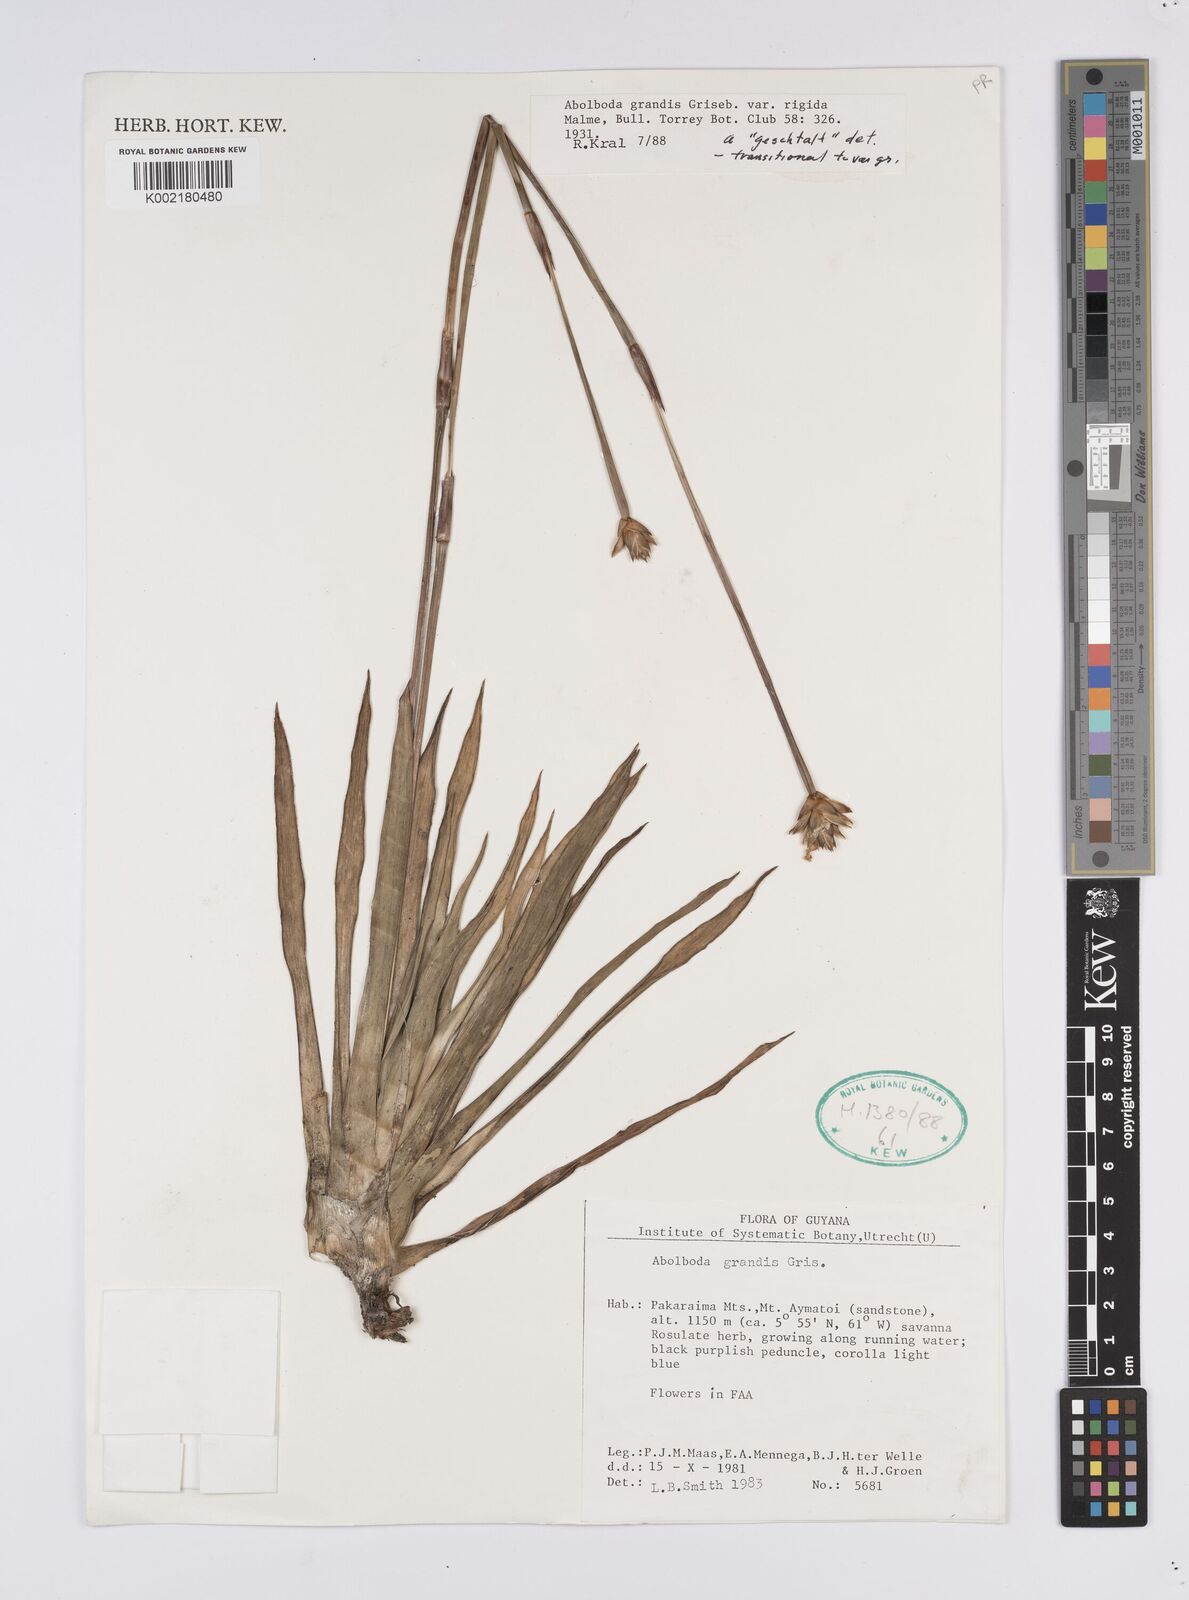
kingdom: Plantae
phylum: Tracheophyta
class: Liliopsida
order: Poales
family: Xyridaceae
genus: Abolboda
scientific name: Abolboda grandis
